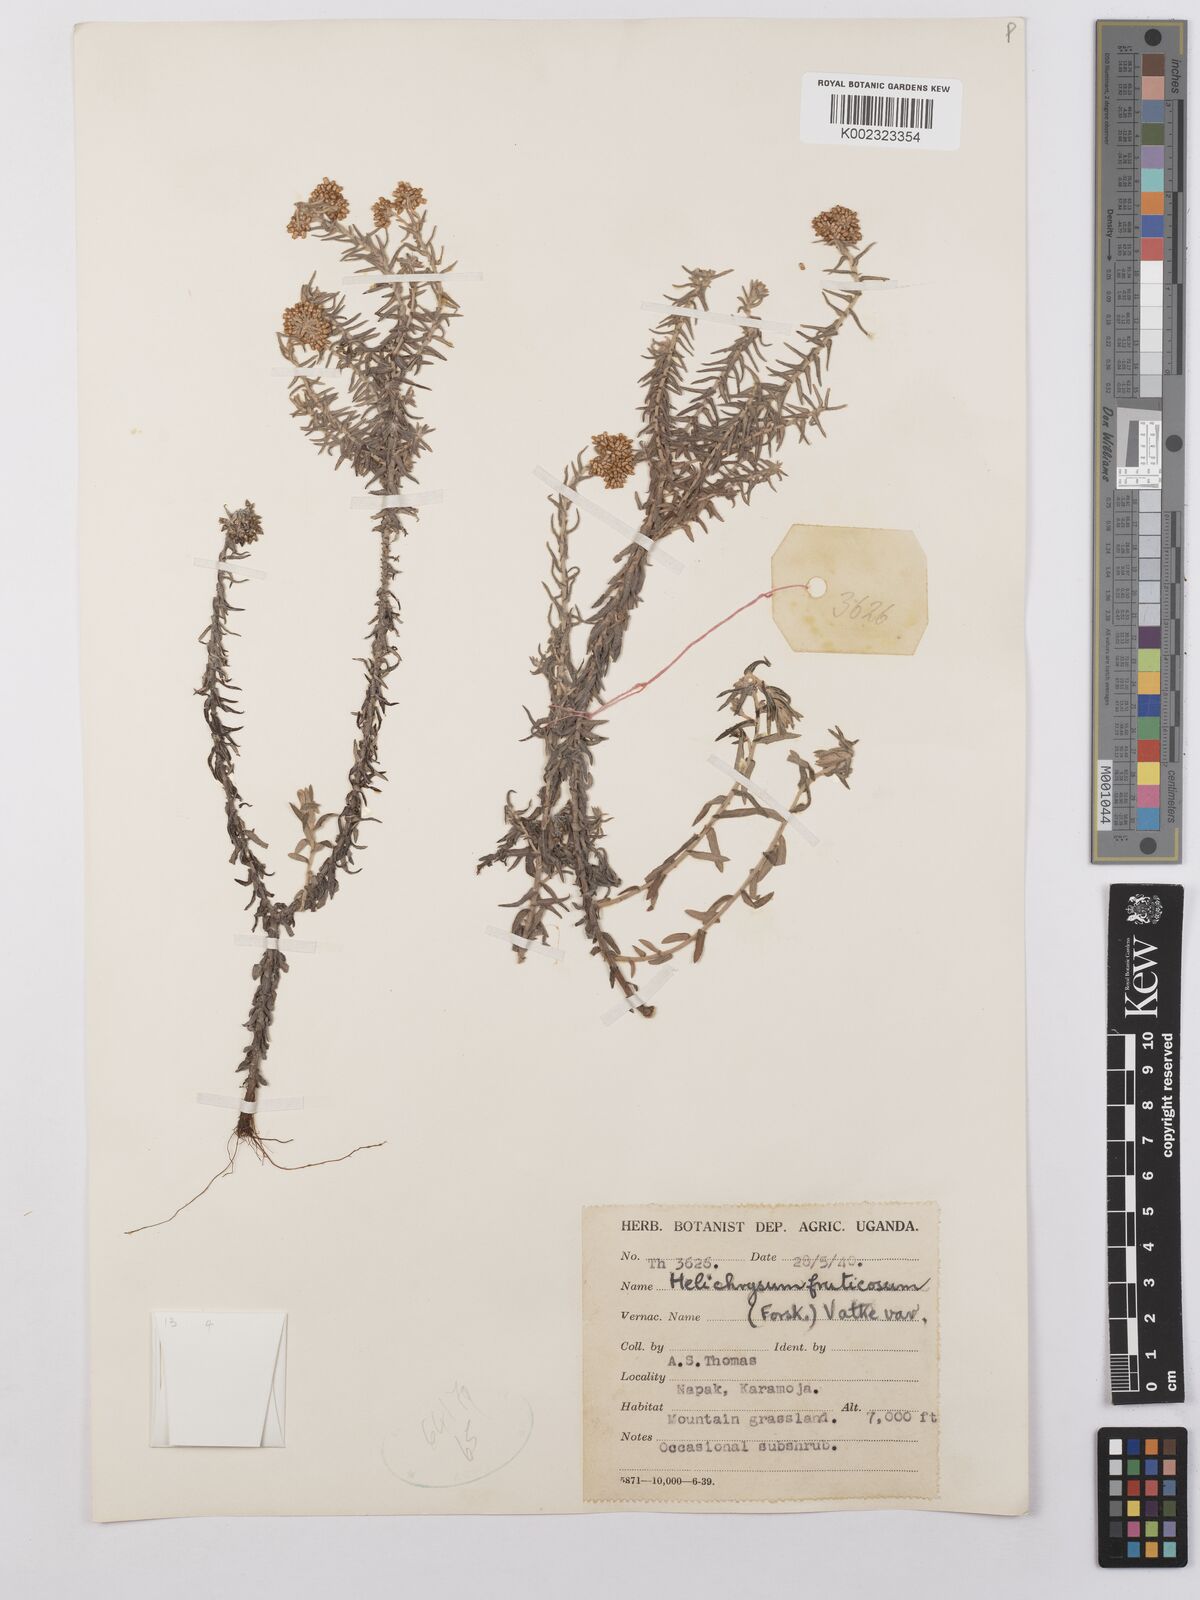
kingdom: Plantae
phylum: Tracheophyta
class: Magnoliopsida
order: Asterales
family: Asteraceae
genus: Helichrysum
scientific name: Helichrysum forskahlii
